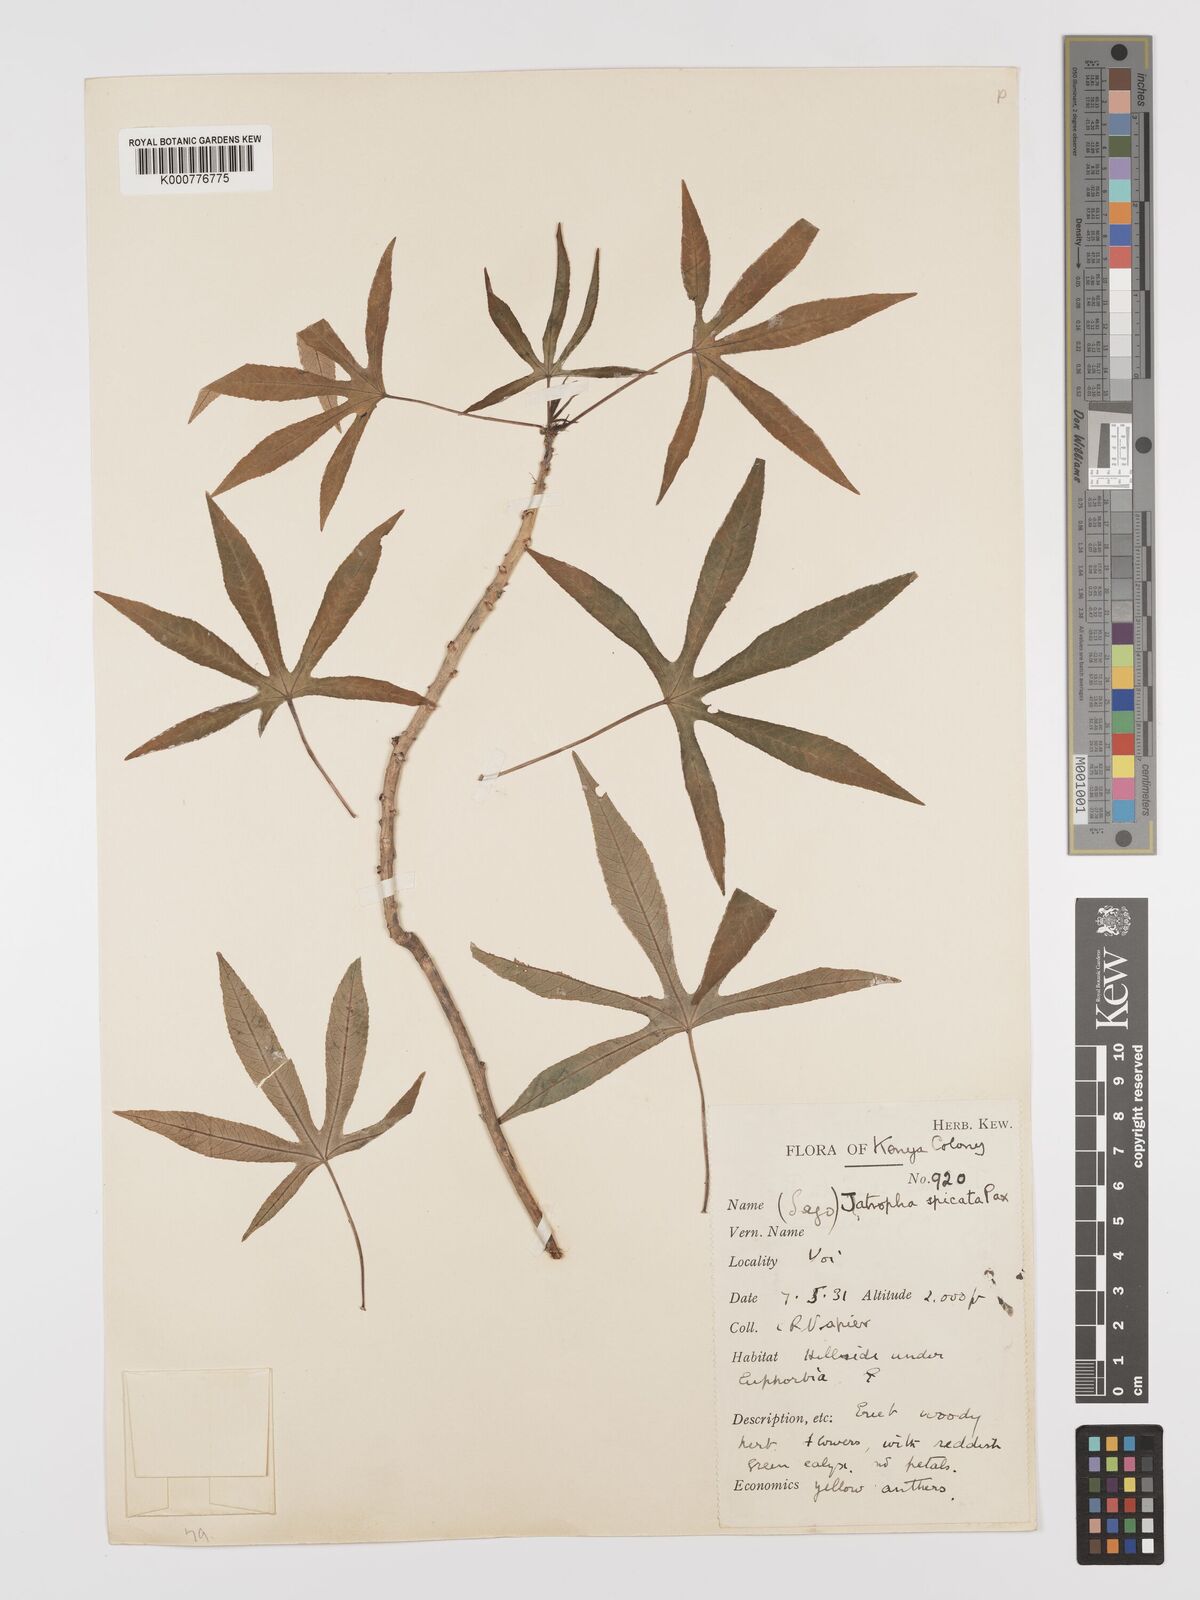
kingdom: Plantae
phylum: Tracheophyta
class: Magnoliopsida
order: Malpighiales
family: Euphorbiaceae
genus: Jatropha
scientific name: Jatropha spicata
